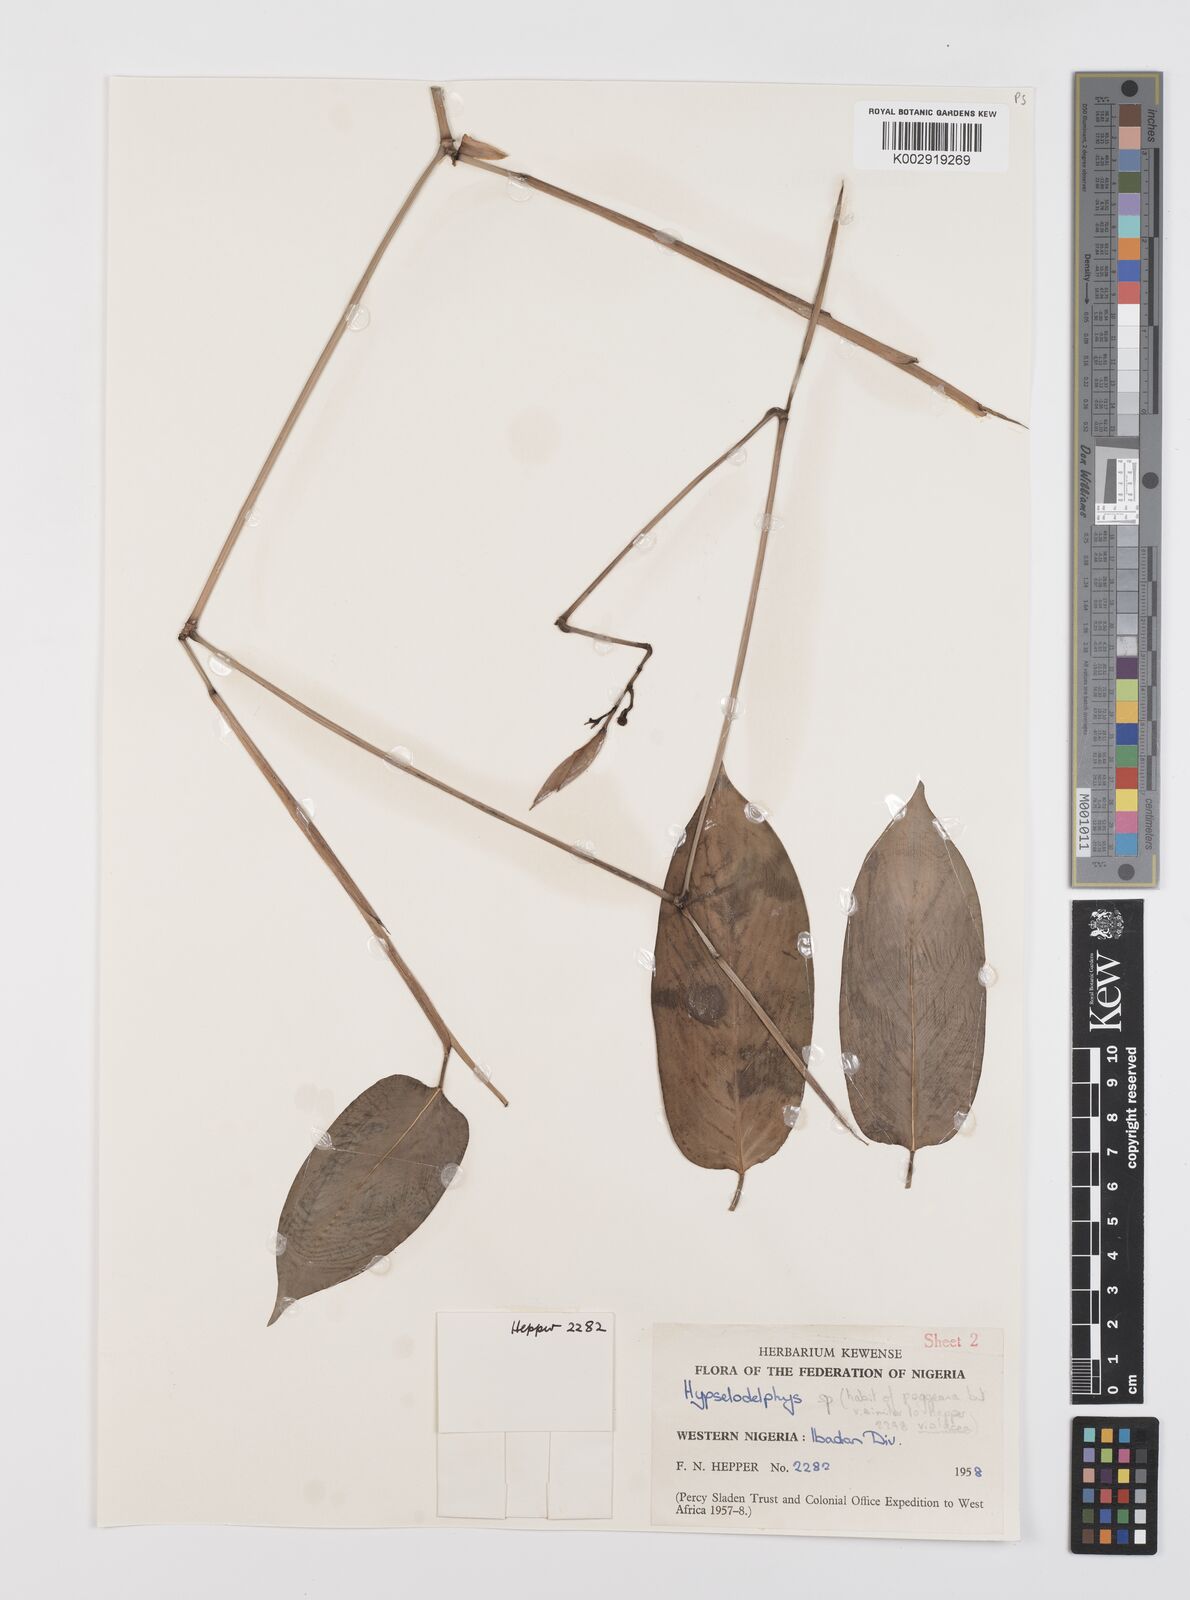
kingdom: Plantae
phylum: Tracheophyta
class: Liliopsida
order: Zingiberales
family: Marantaceae
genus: Hypselodelphys
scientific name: Hypselodelphys
